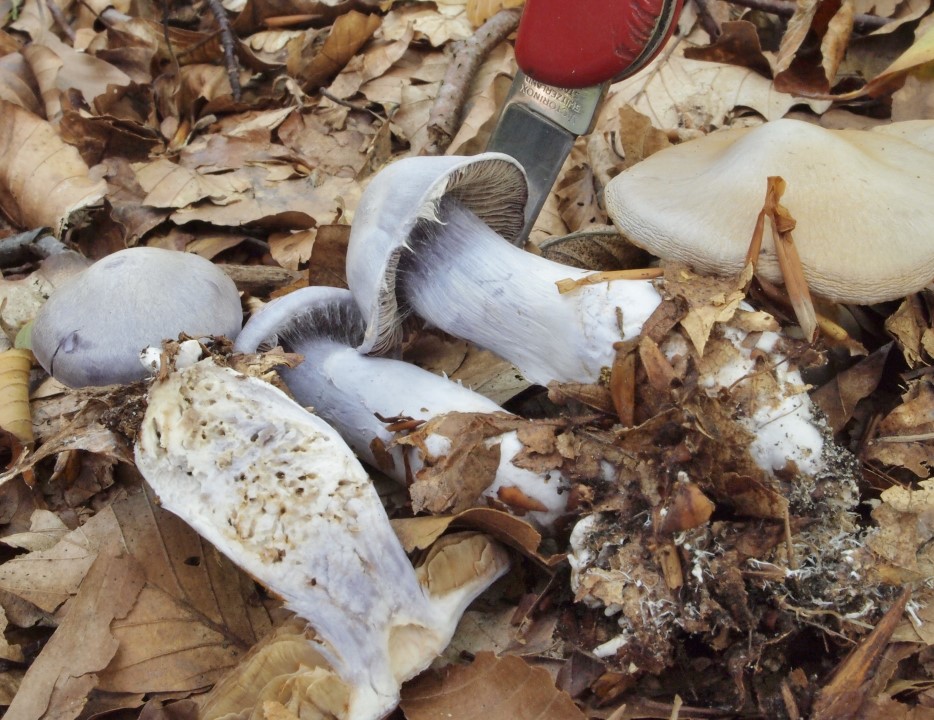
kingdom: Fungi
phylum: Basidiomycota
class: Agaricomycetes
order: Agaricales
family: Cortinariaceae
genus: Cortinarius
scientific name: Cortinarius alboviolaceus
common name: lysviolet slørhat
